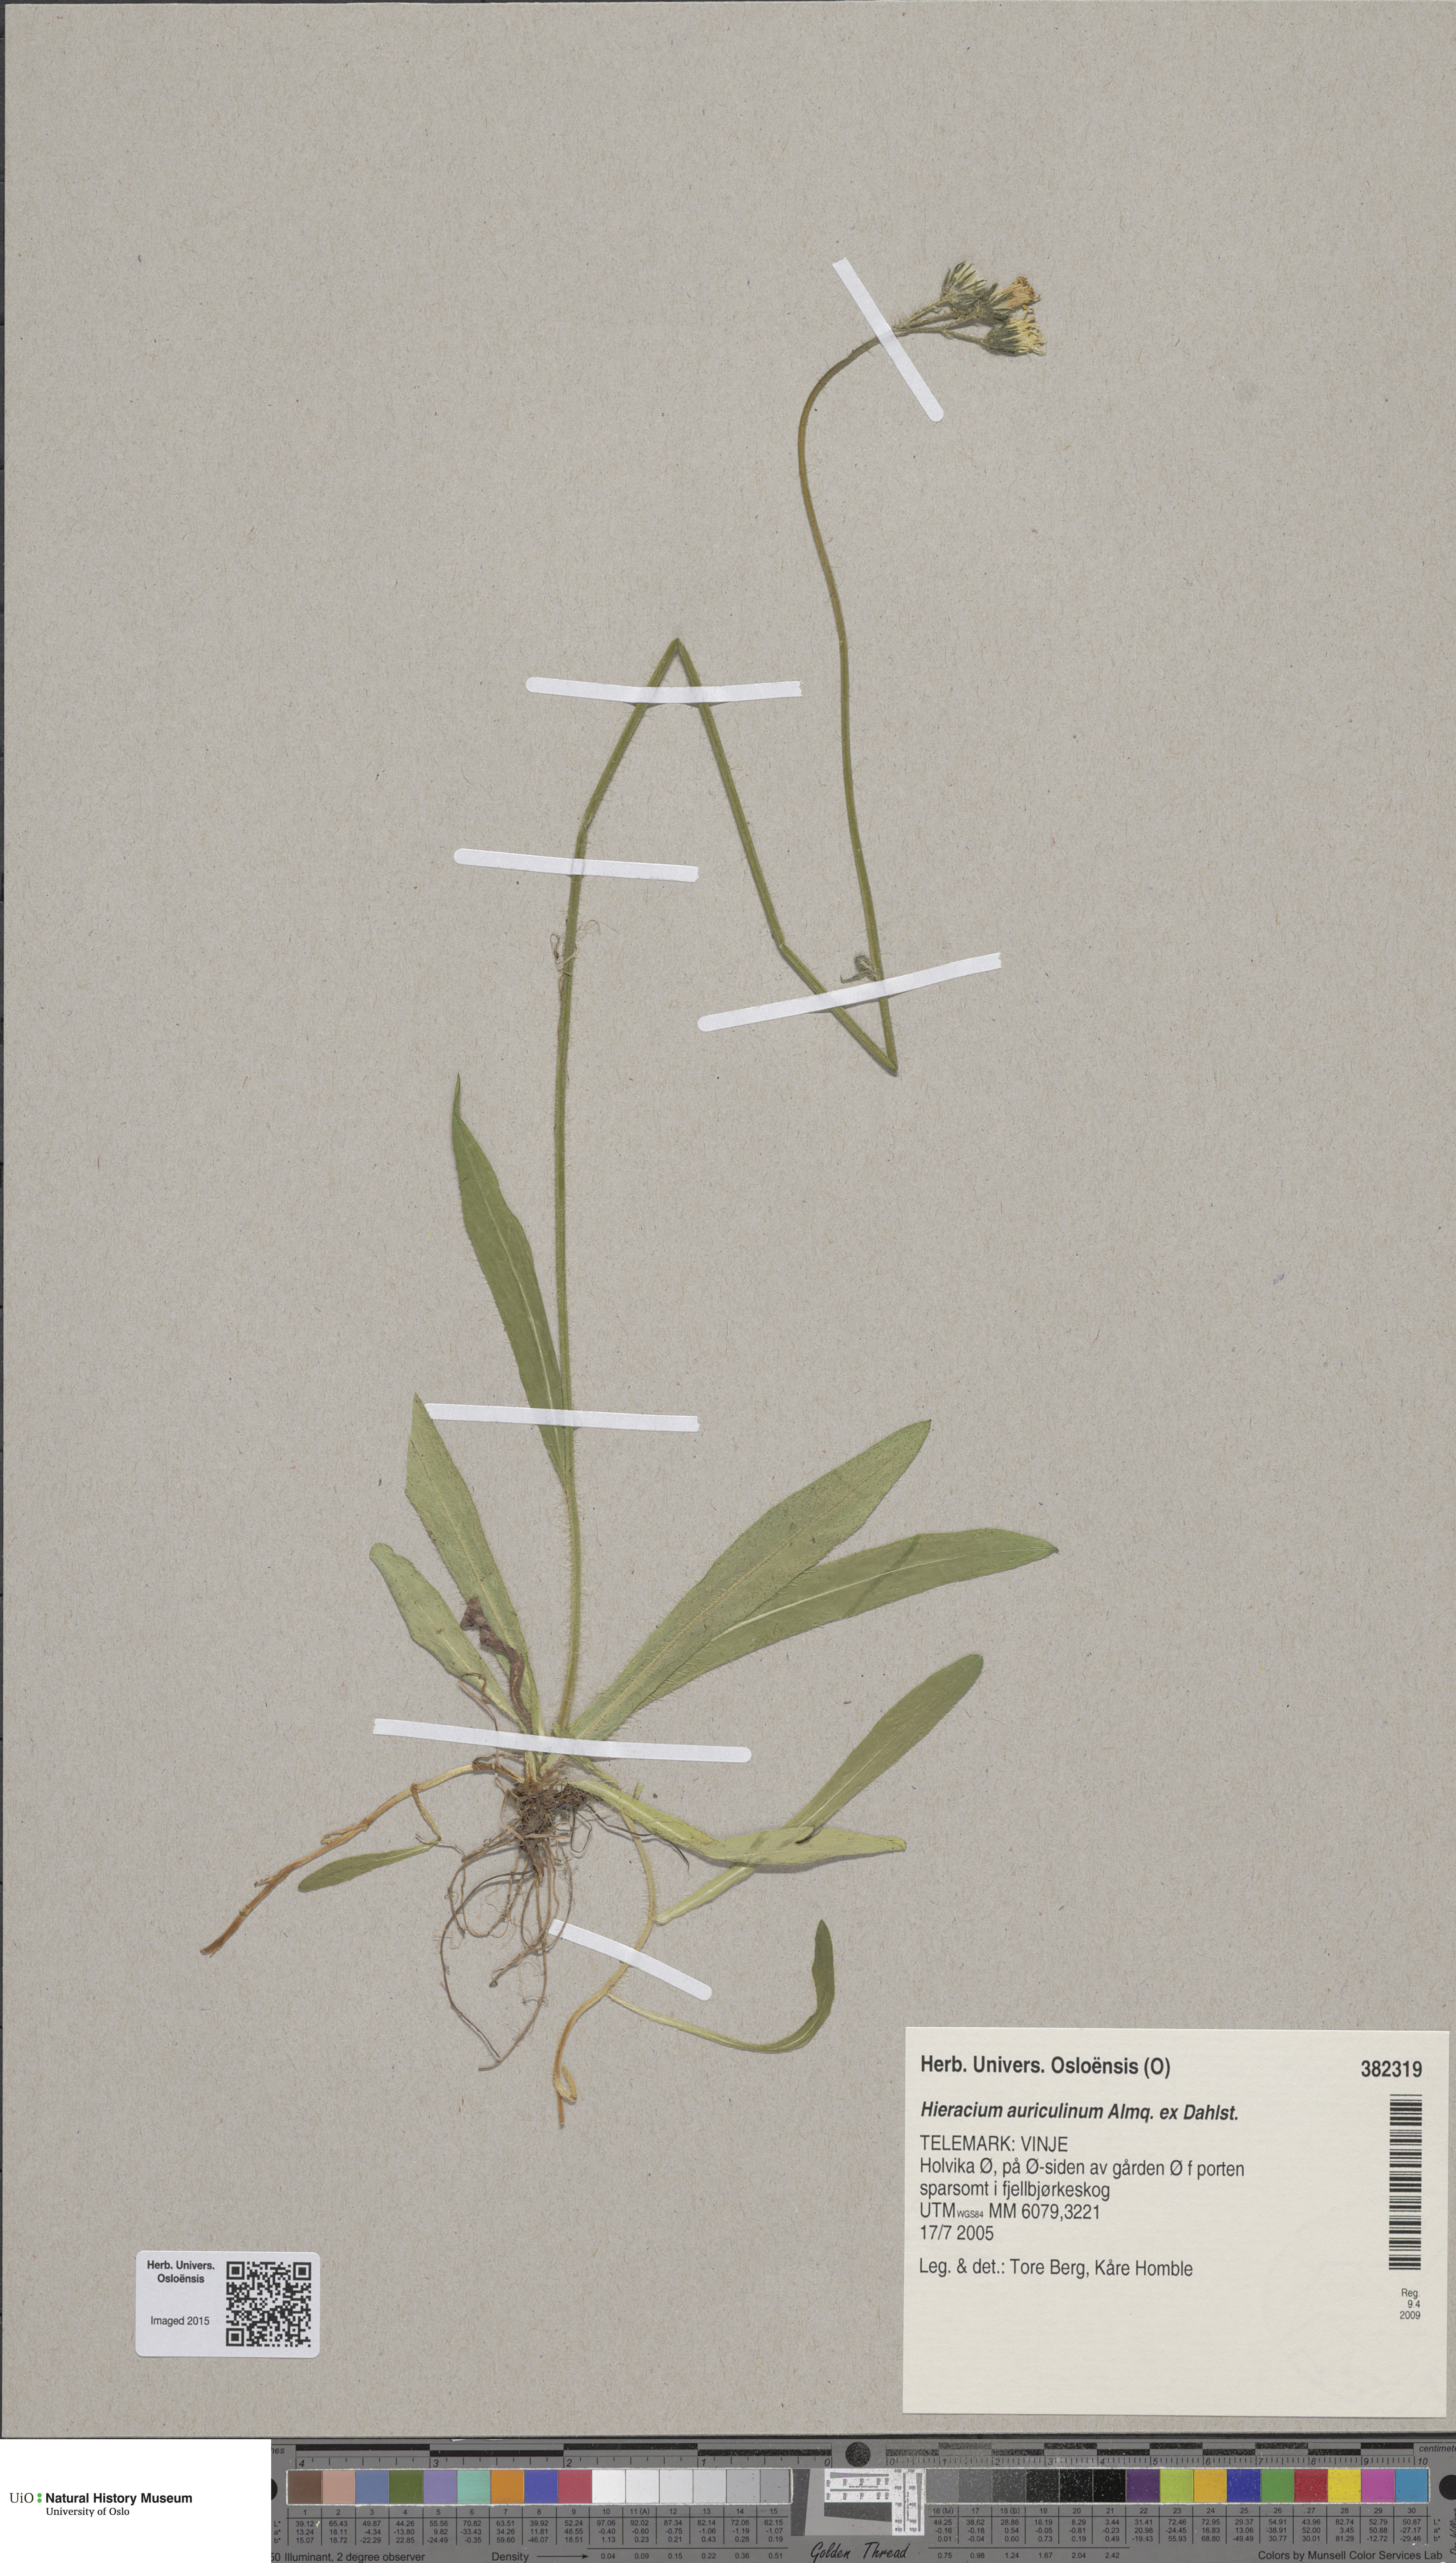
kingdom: Plantae
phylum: Tracheophyta
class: Magnoliopsida
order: Asterales
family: Asteraceae
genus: Pilosella
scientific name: Pilosella dubia
